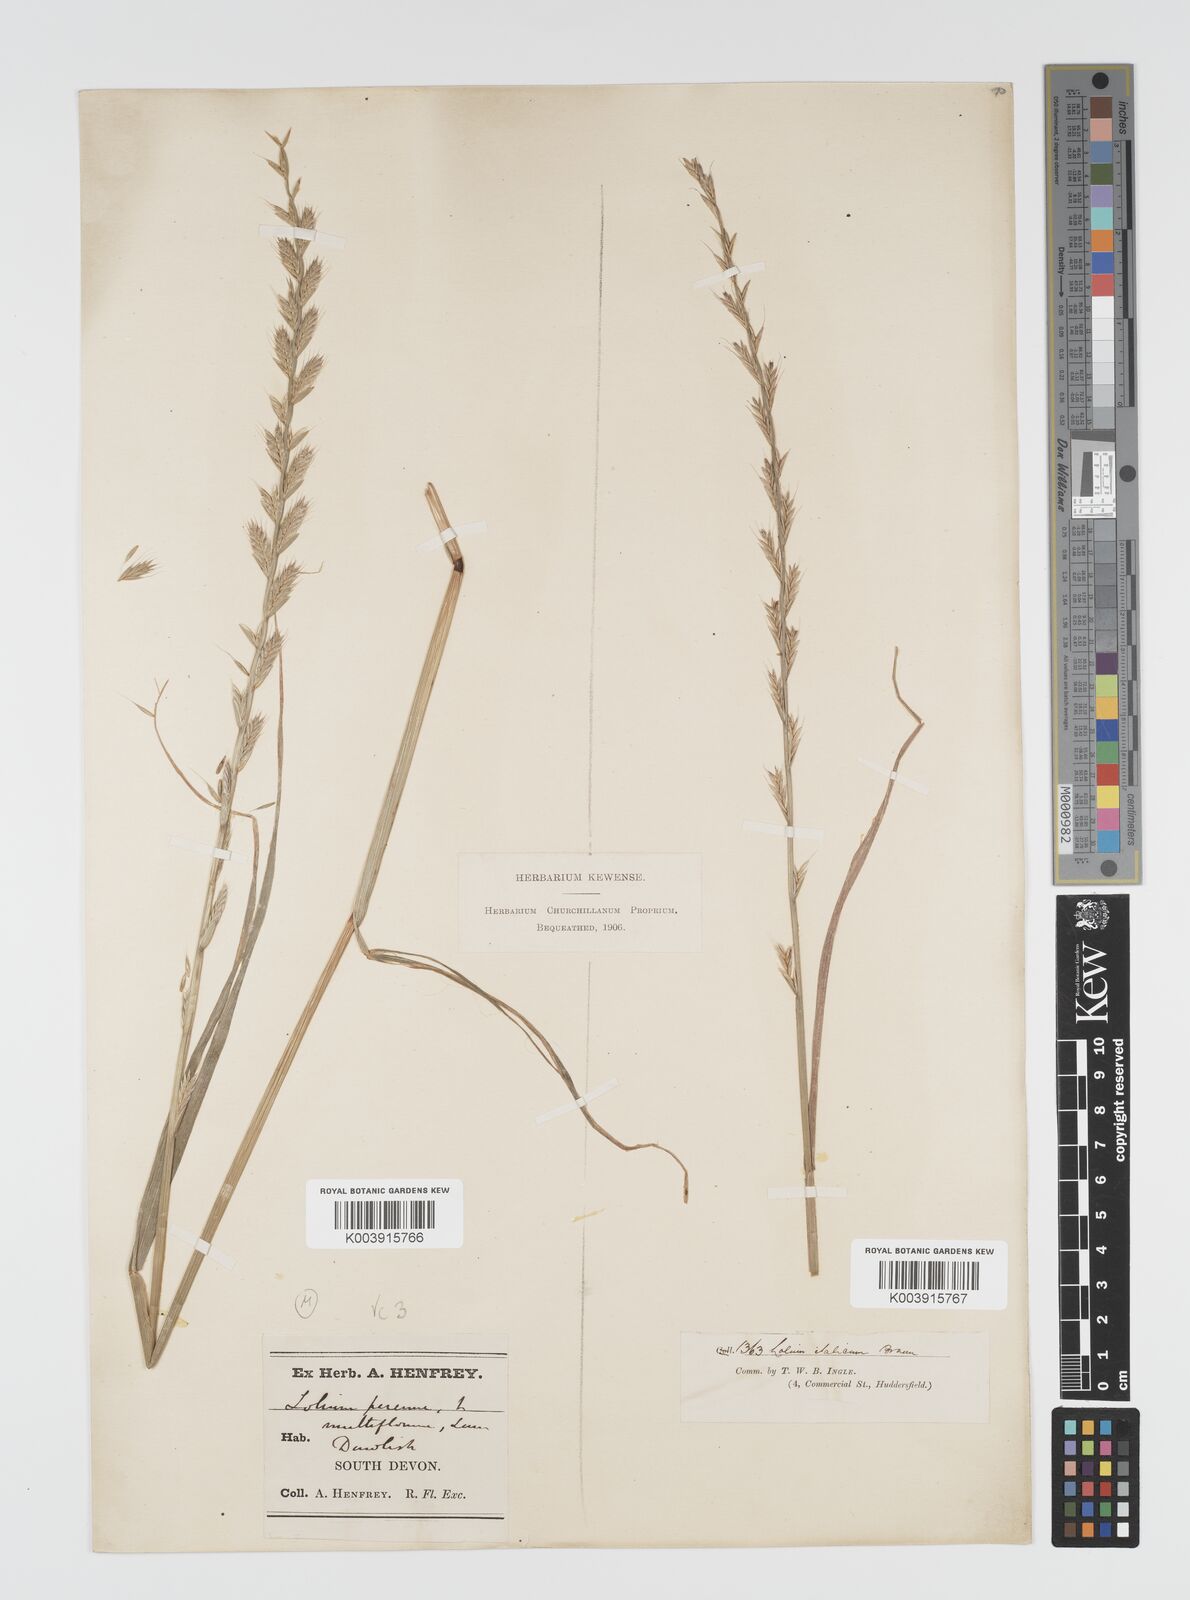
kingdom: Plantae
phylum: Tracheophyta
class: Liliopsida
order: Poales
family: Poaceae
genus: Lolium
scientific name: Lolium multiflorum
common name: Annual ryegrass
